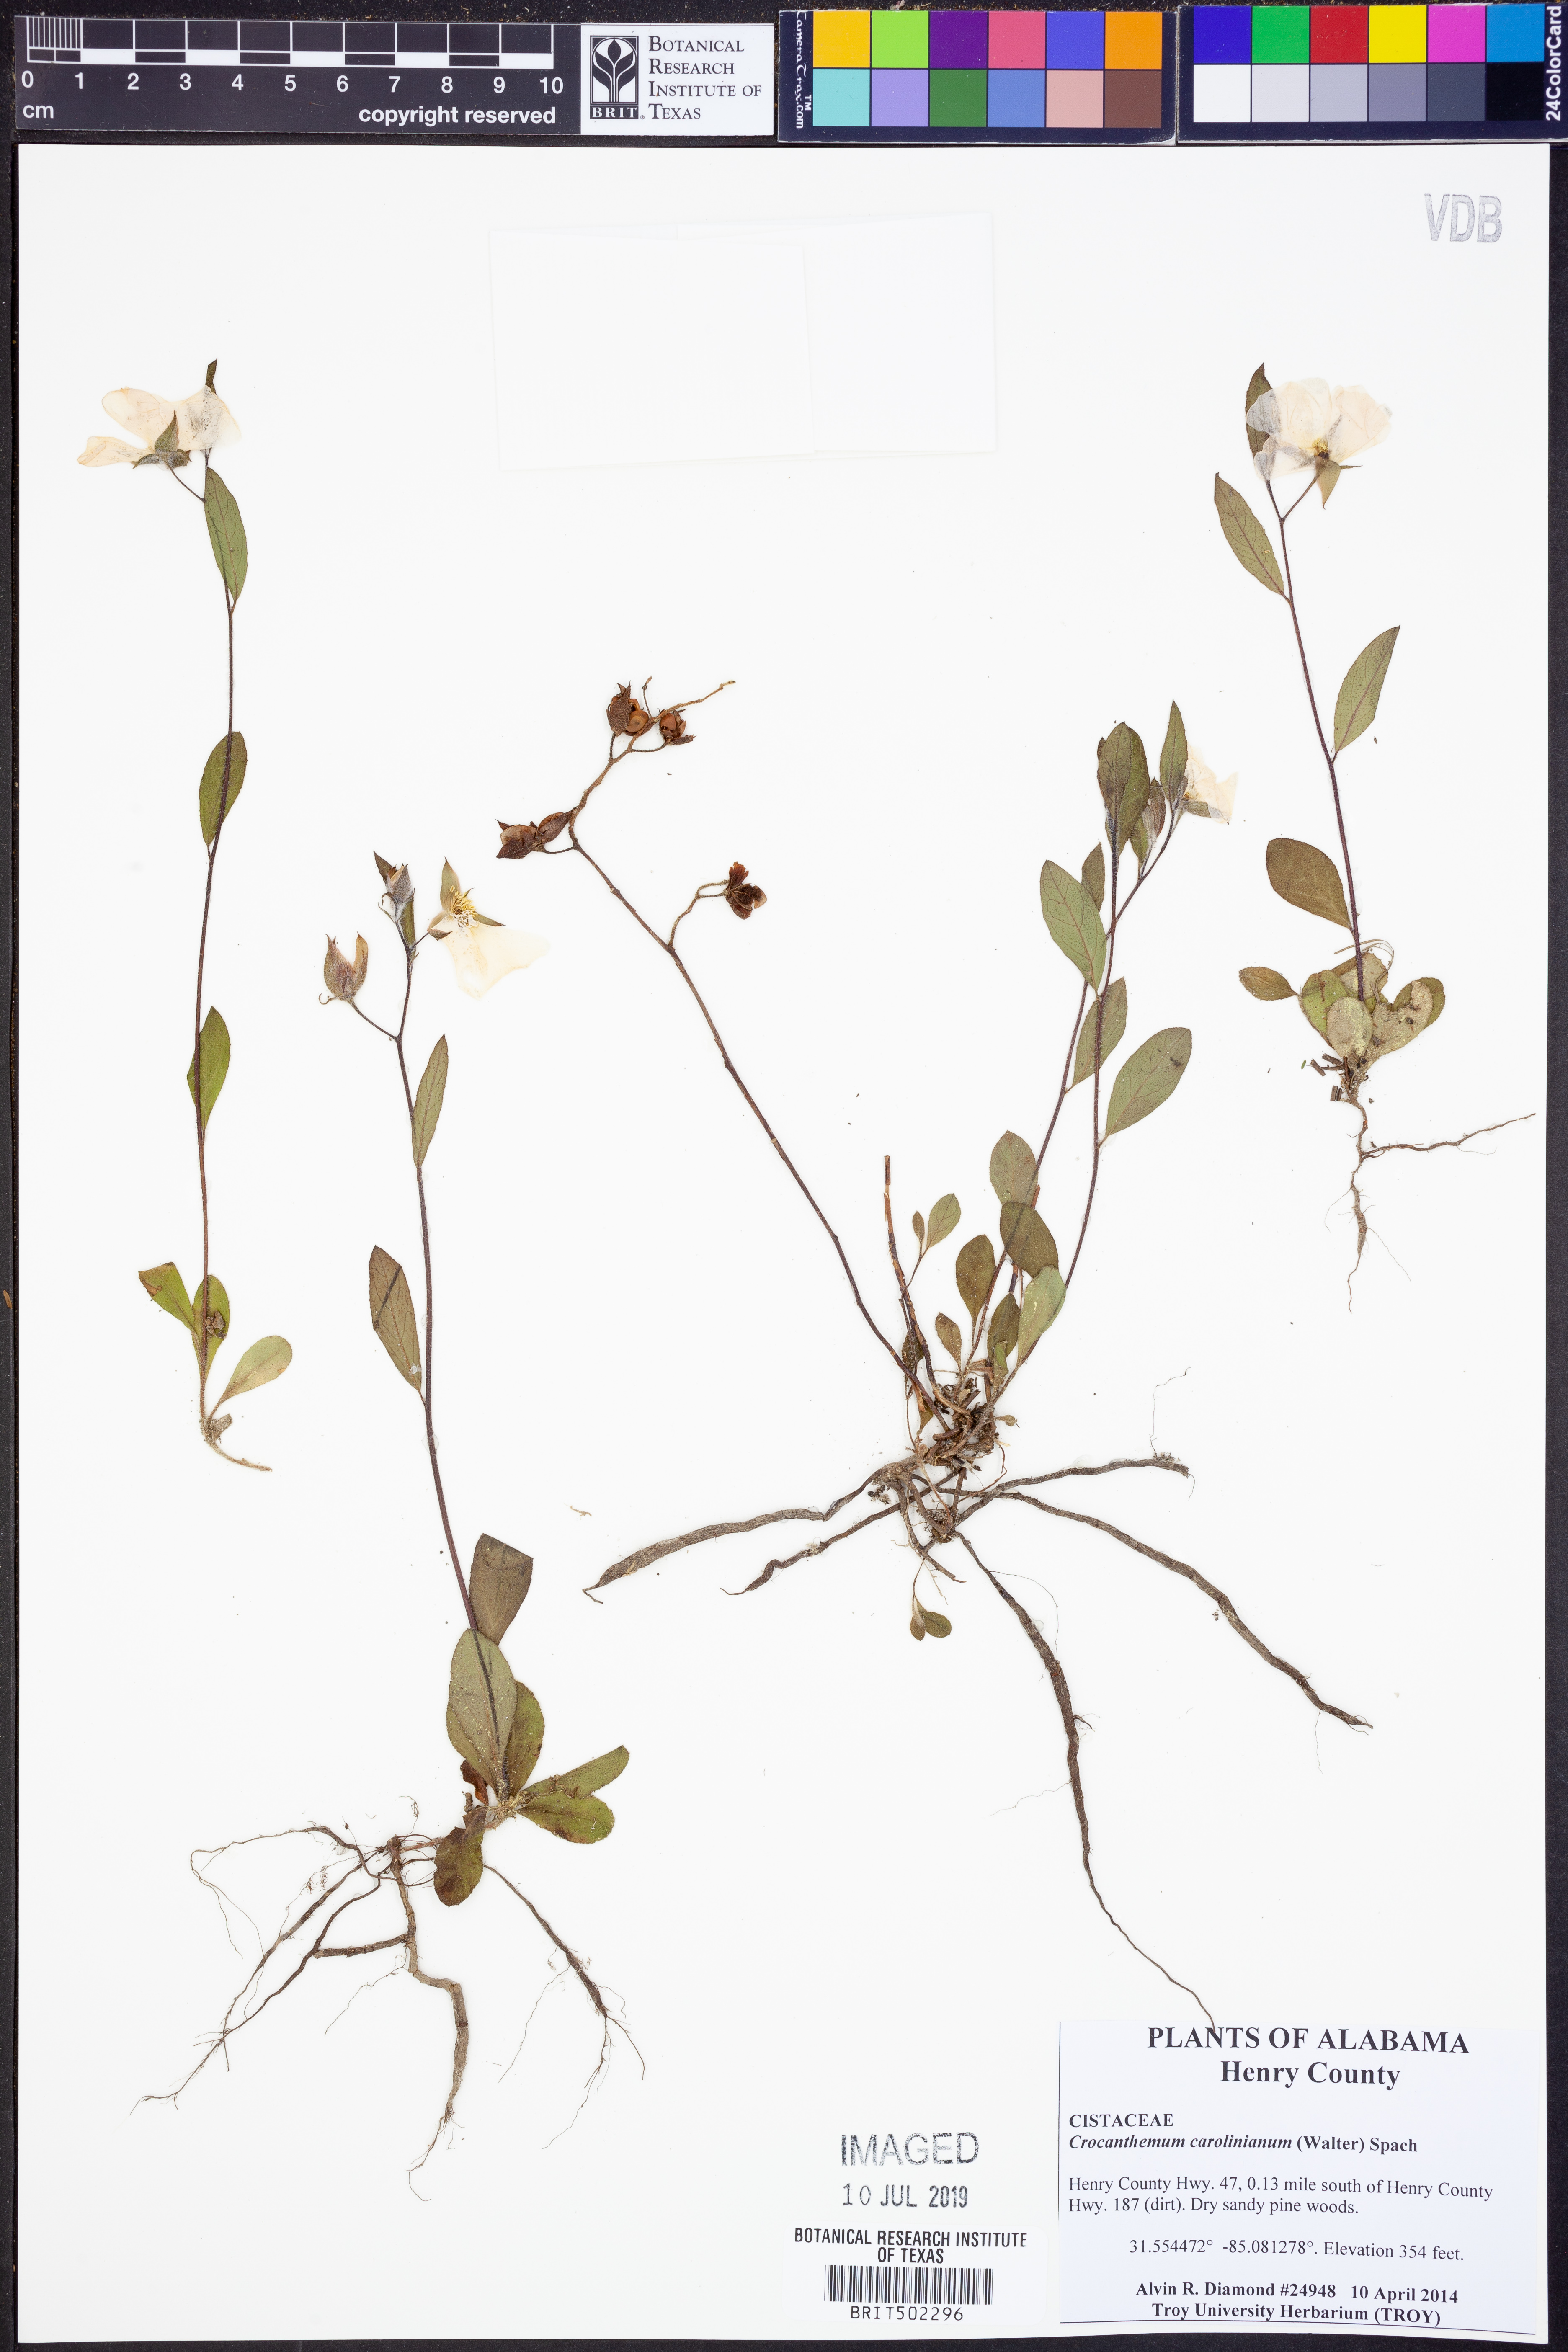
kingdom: Plantae
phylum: Tracheophyta
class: Magnoliopsida
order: Malvales
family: Cistaceae
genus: Crocanthemum
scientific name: Crocanthemum carolinianum
